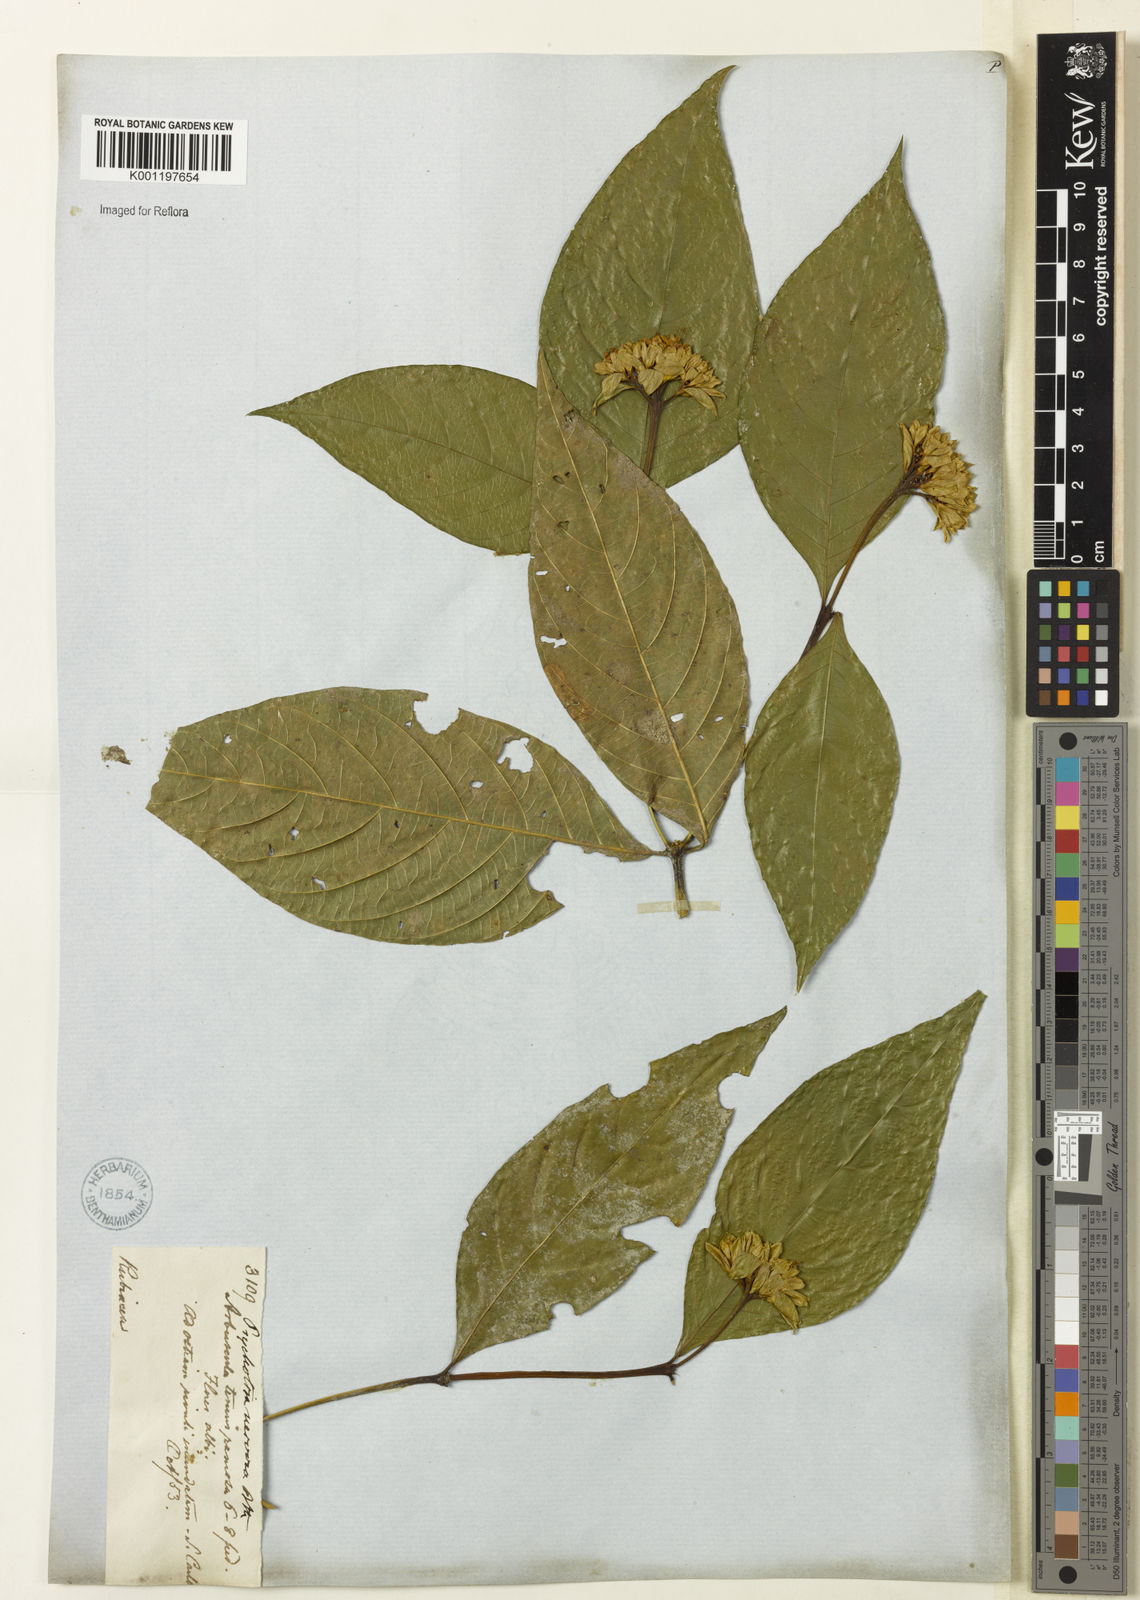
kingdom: Plantae
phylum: Tracheophyta
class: Magnoliopsida
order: Gentianales
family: Rubiaceae
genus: Palicourea
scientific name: Palicourea justiciifolia
